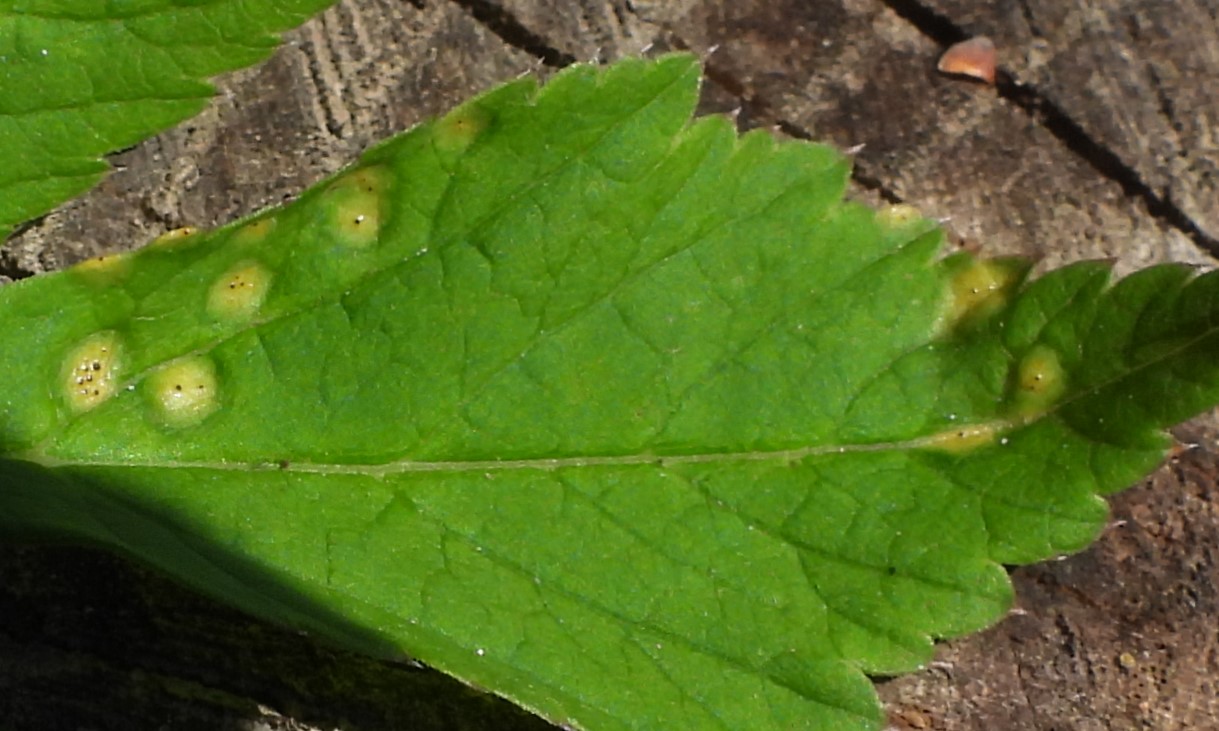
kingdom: Fungi
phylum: Basidiomycota
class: Pucciniomycetes
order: Pucciniales
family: Pucciniaceae
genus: Puccinia
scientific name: Puccinia
